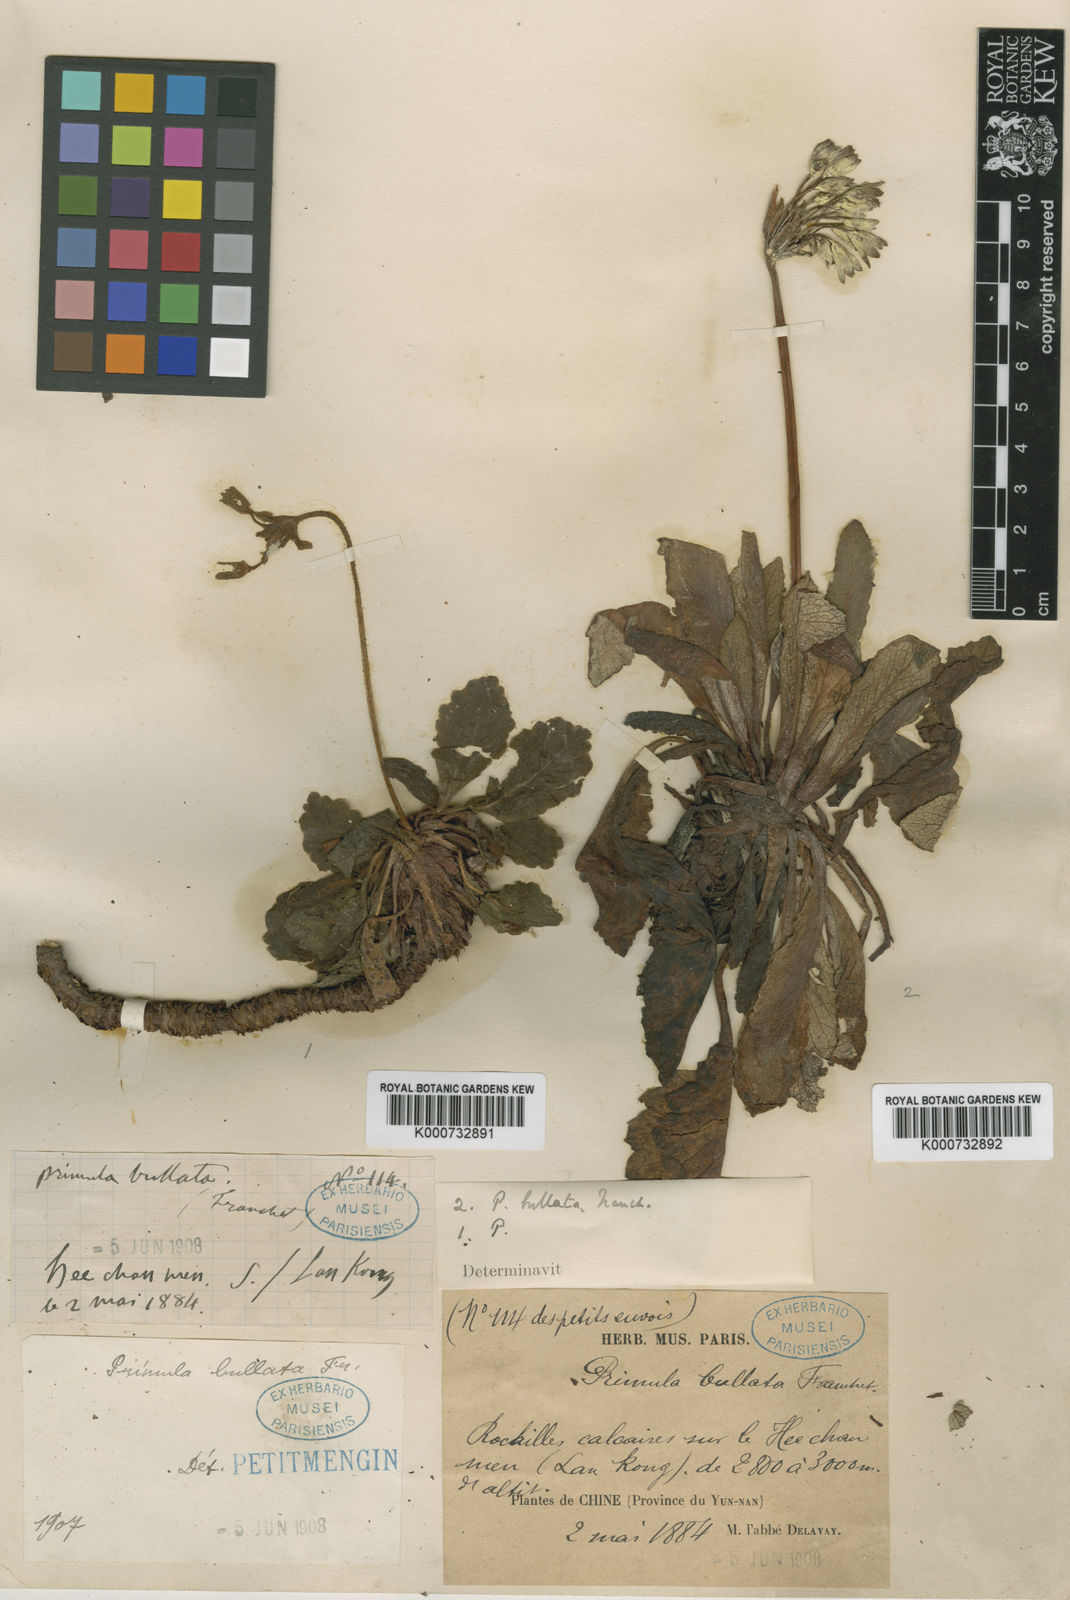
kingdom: Plantae
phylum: Tracheophyta
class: Magnoliopsida
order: Ericales
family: Primulaceae
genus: Primula
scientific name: Primula bullata
